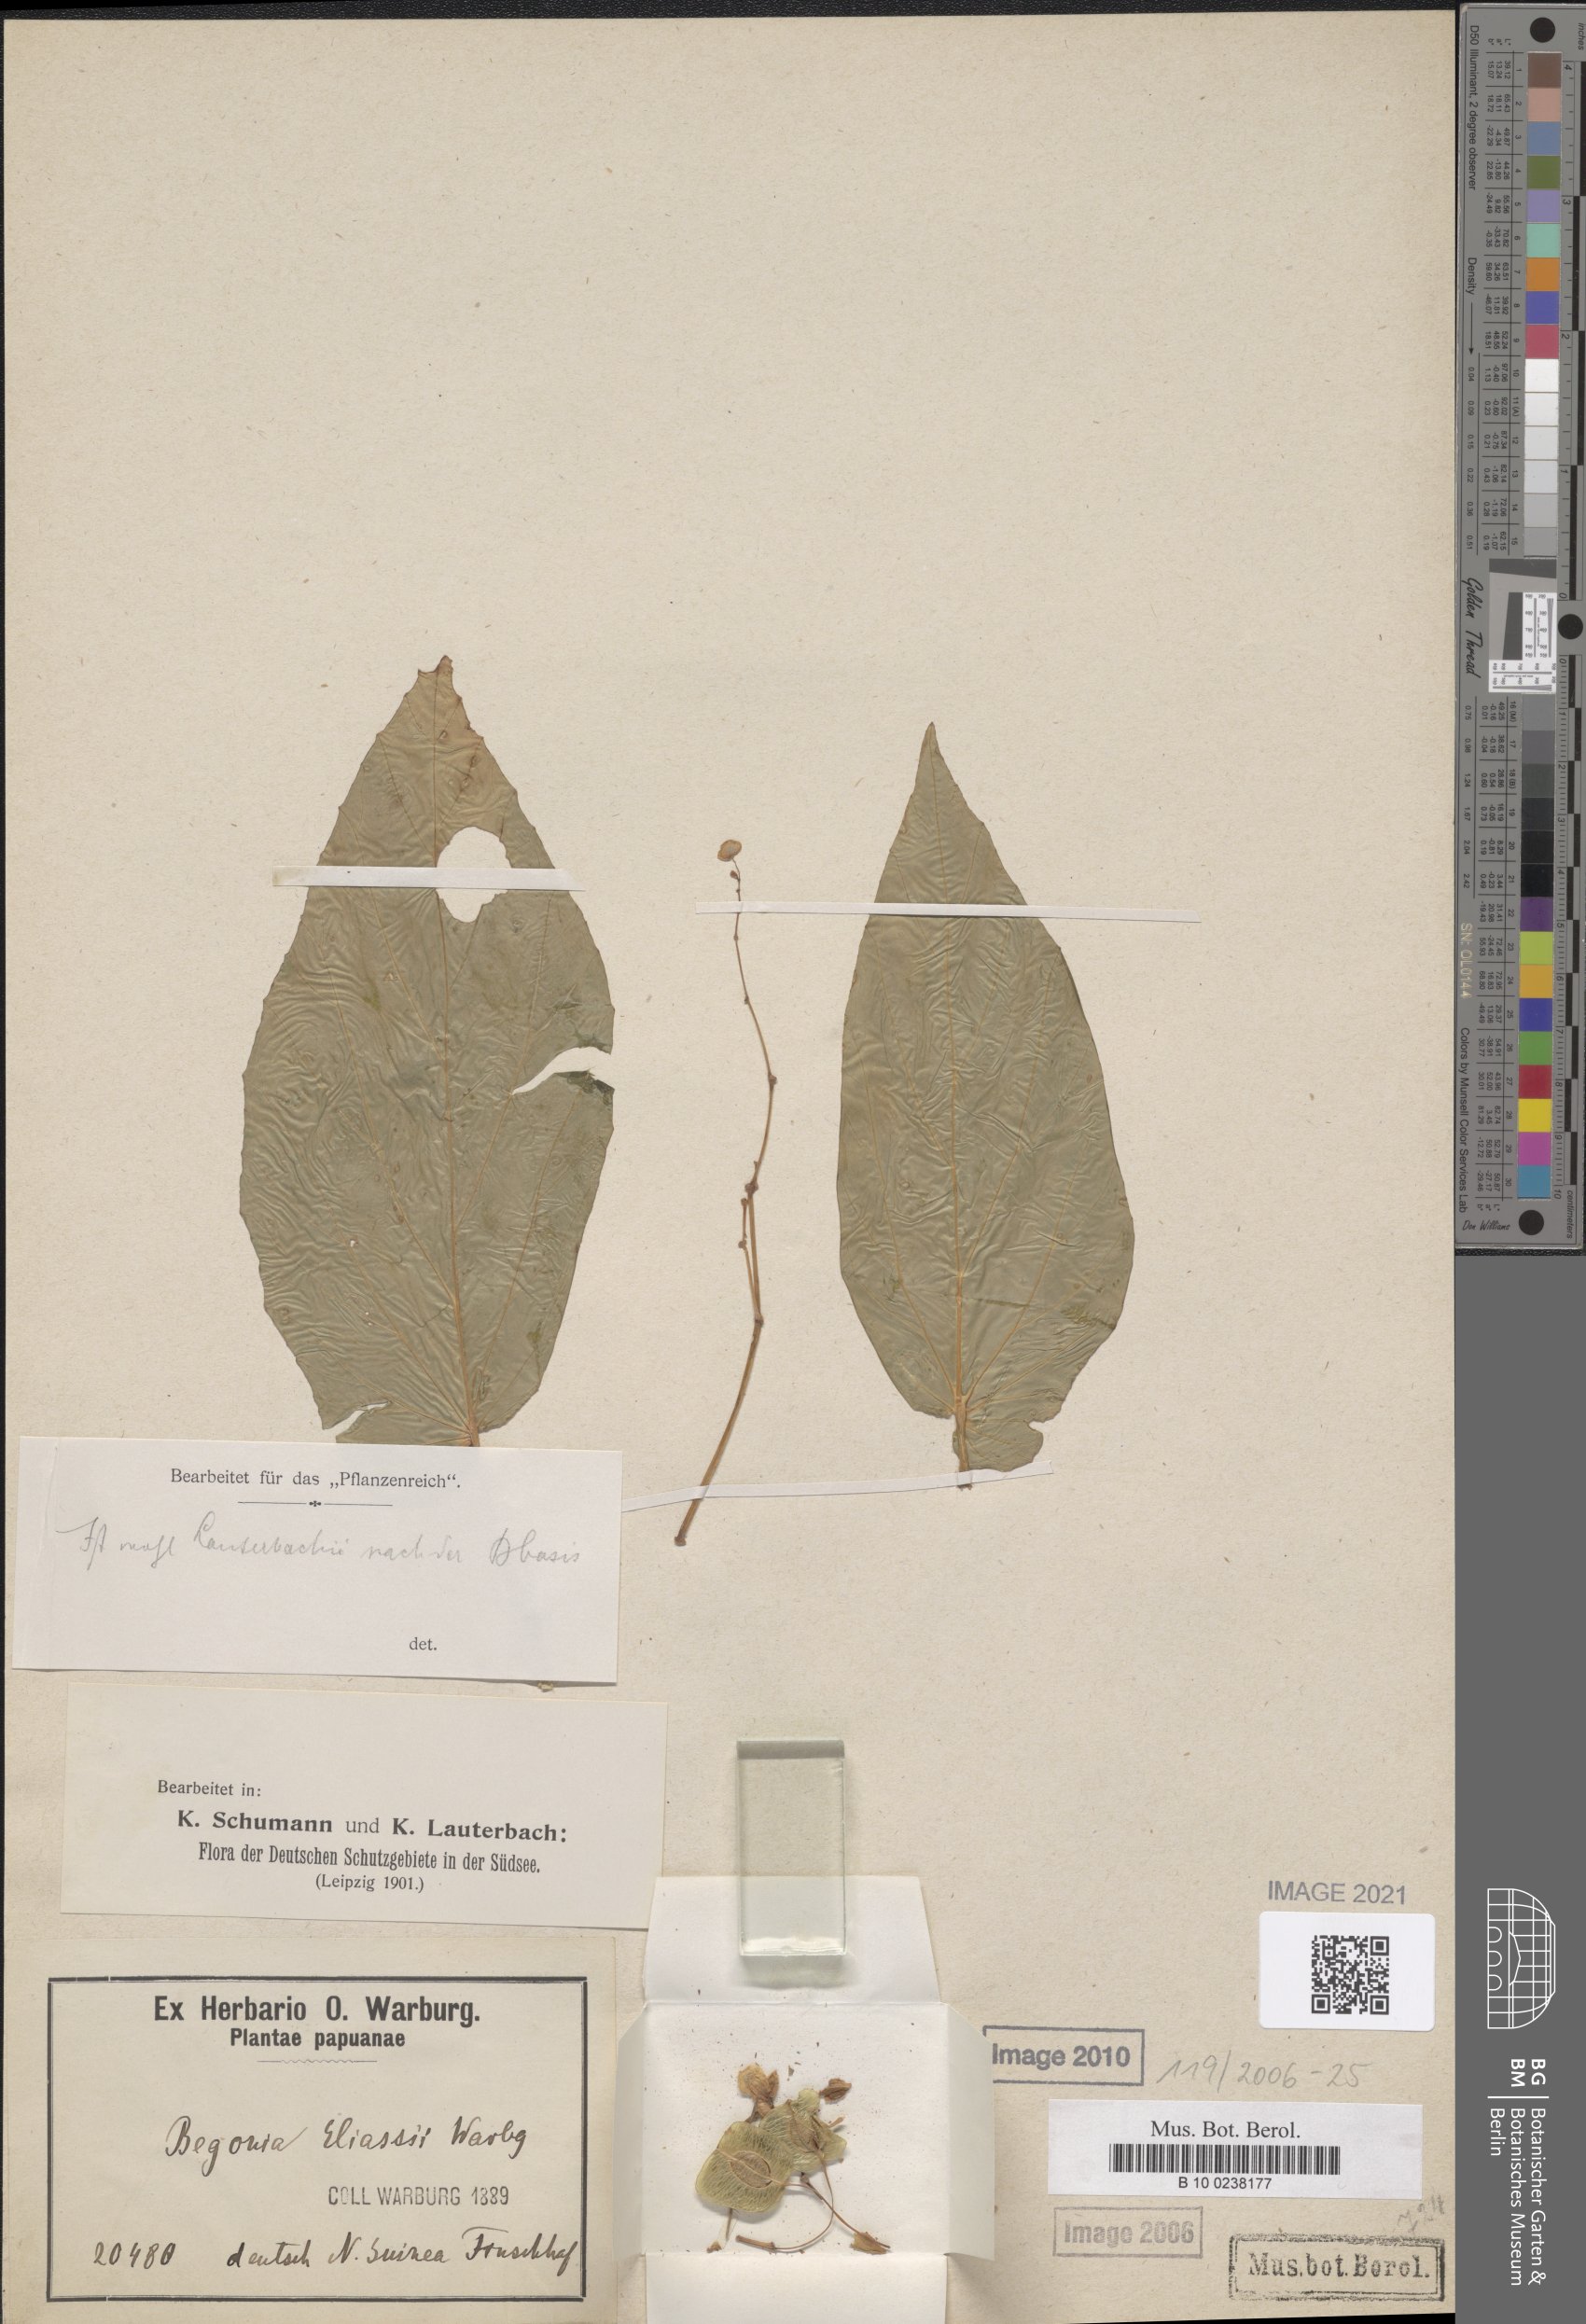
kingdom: Plantae
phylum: Tracheophyta
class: Magnoliopsida
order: Cucurbitales
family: Begoniaceae
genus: Begonia
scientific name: Begonia eliasii
